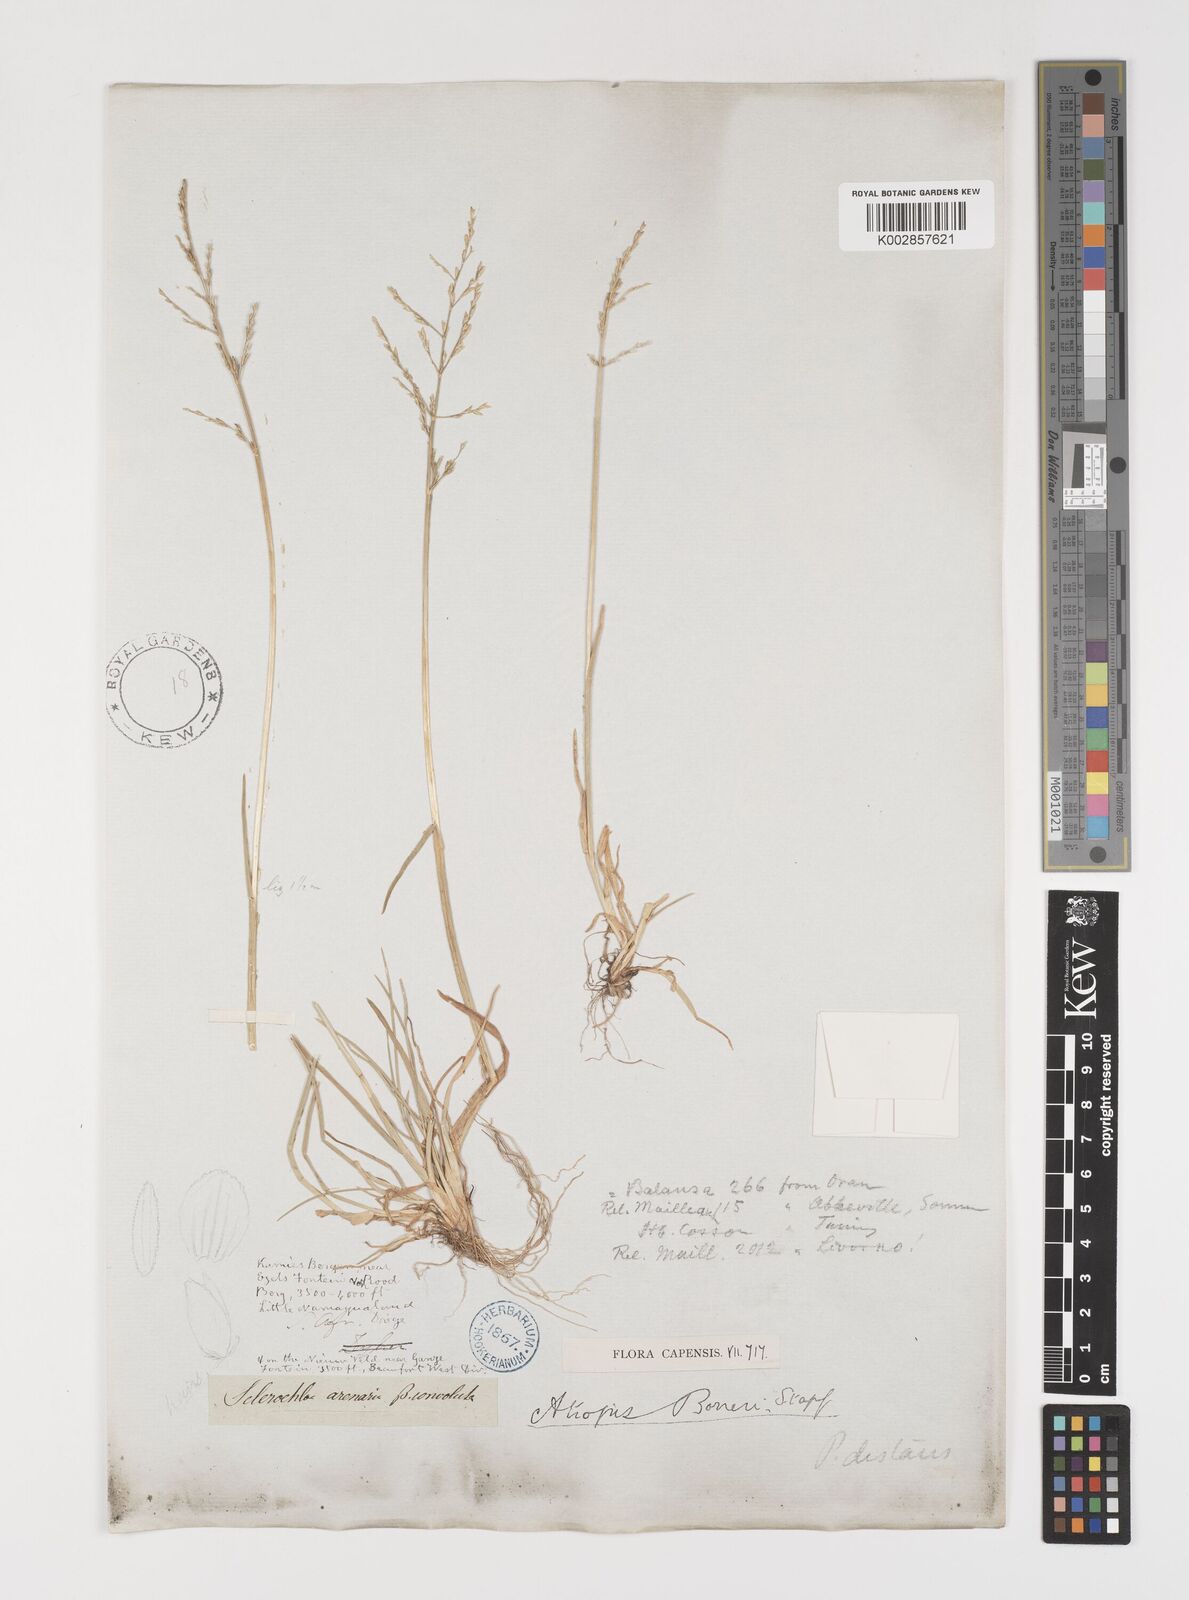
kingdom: Plantae
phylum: Tracheophyta
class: Liliopsida
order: Poales
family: Poaceae
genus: Puccinellia
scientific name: Puccinellia fasciculata
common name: Borrer's saltmarsh-grass
